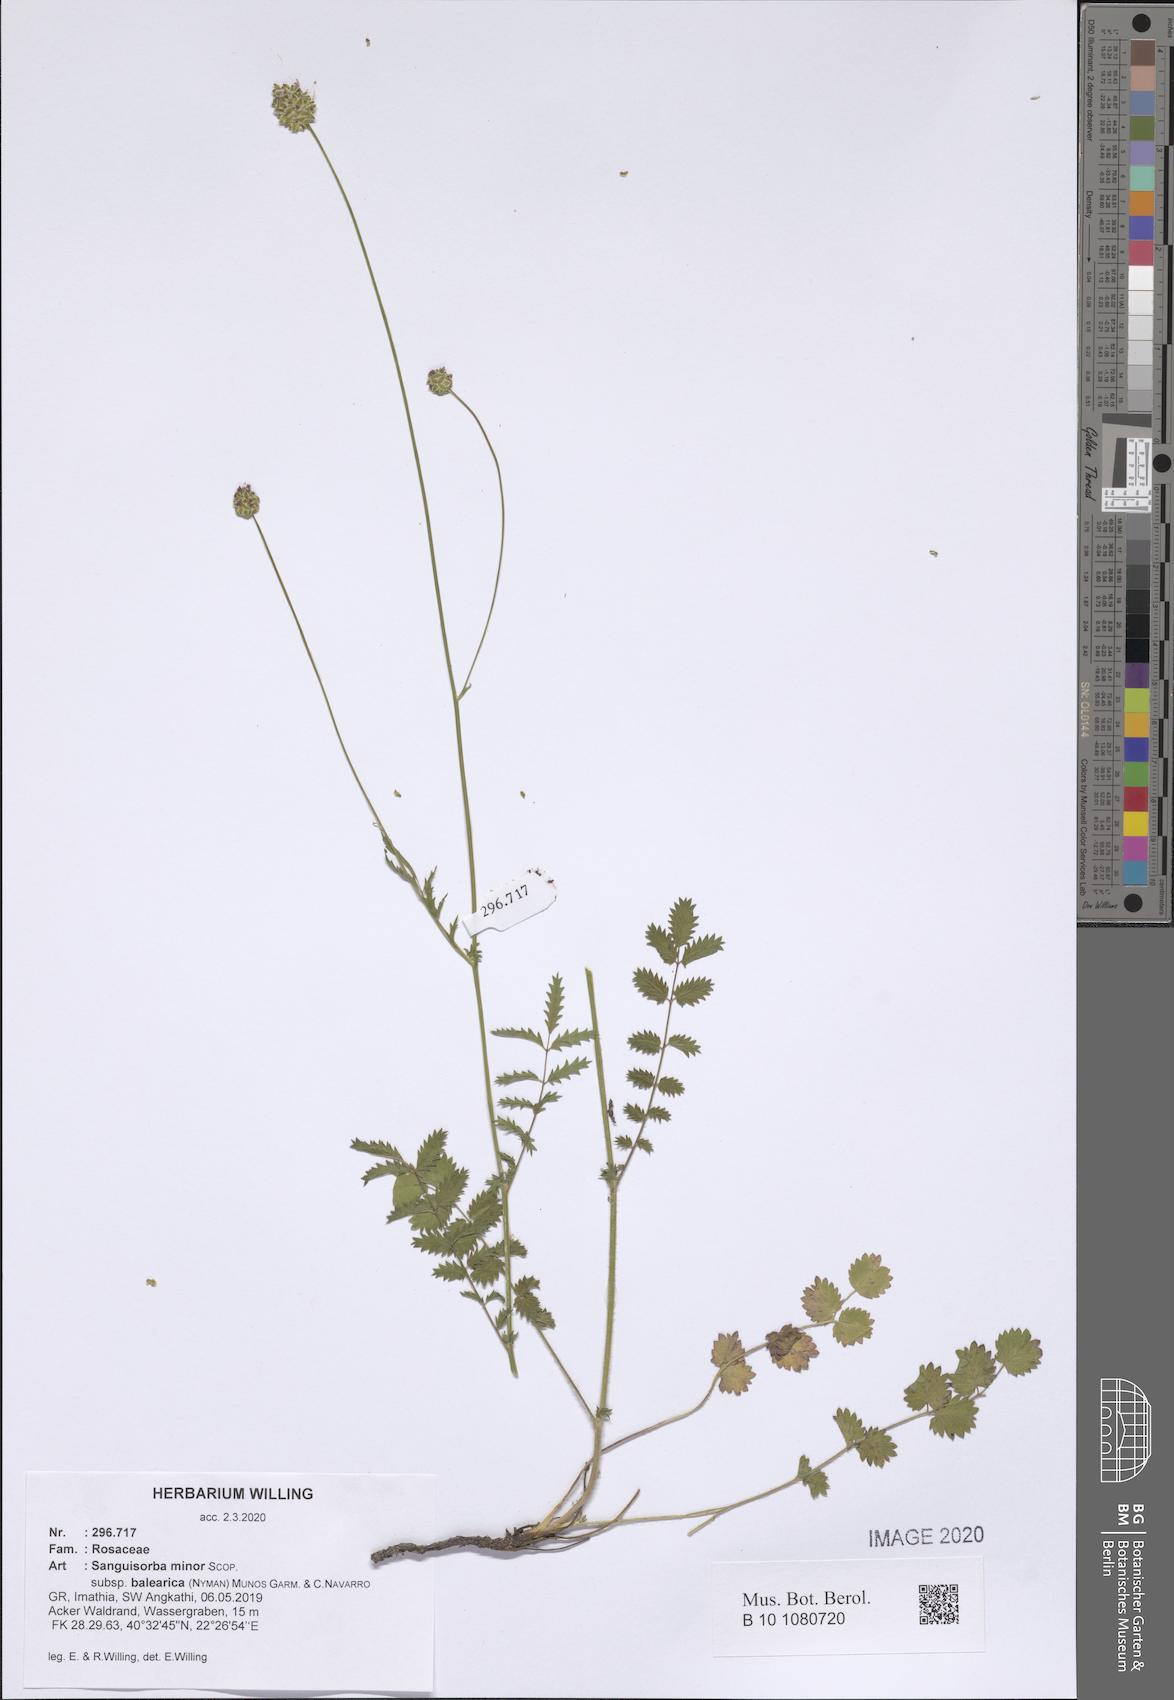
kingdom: Plantae
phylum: Tracheophyta
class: Magnoliopsida
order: Rosales
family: Rosaceae
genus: Poterium
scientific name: Poterium sanguisorba
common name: Salad burnet
